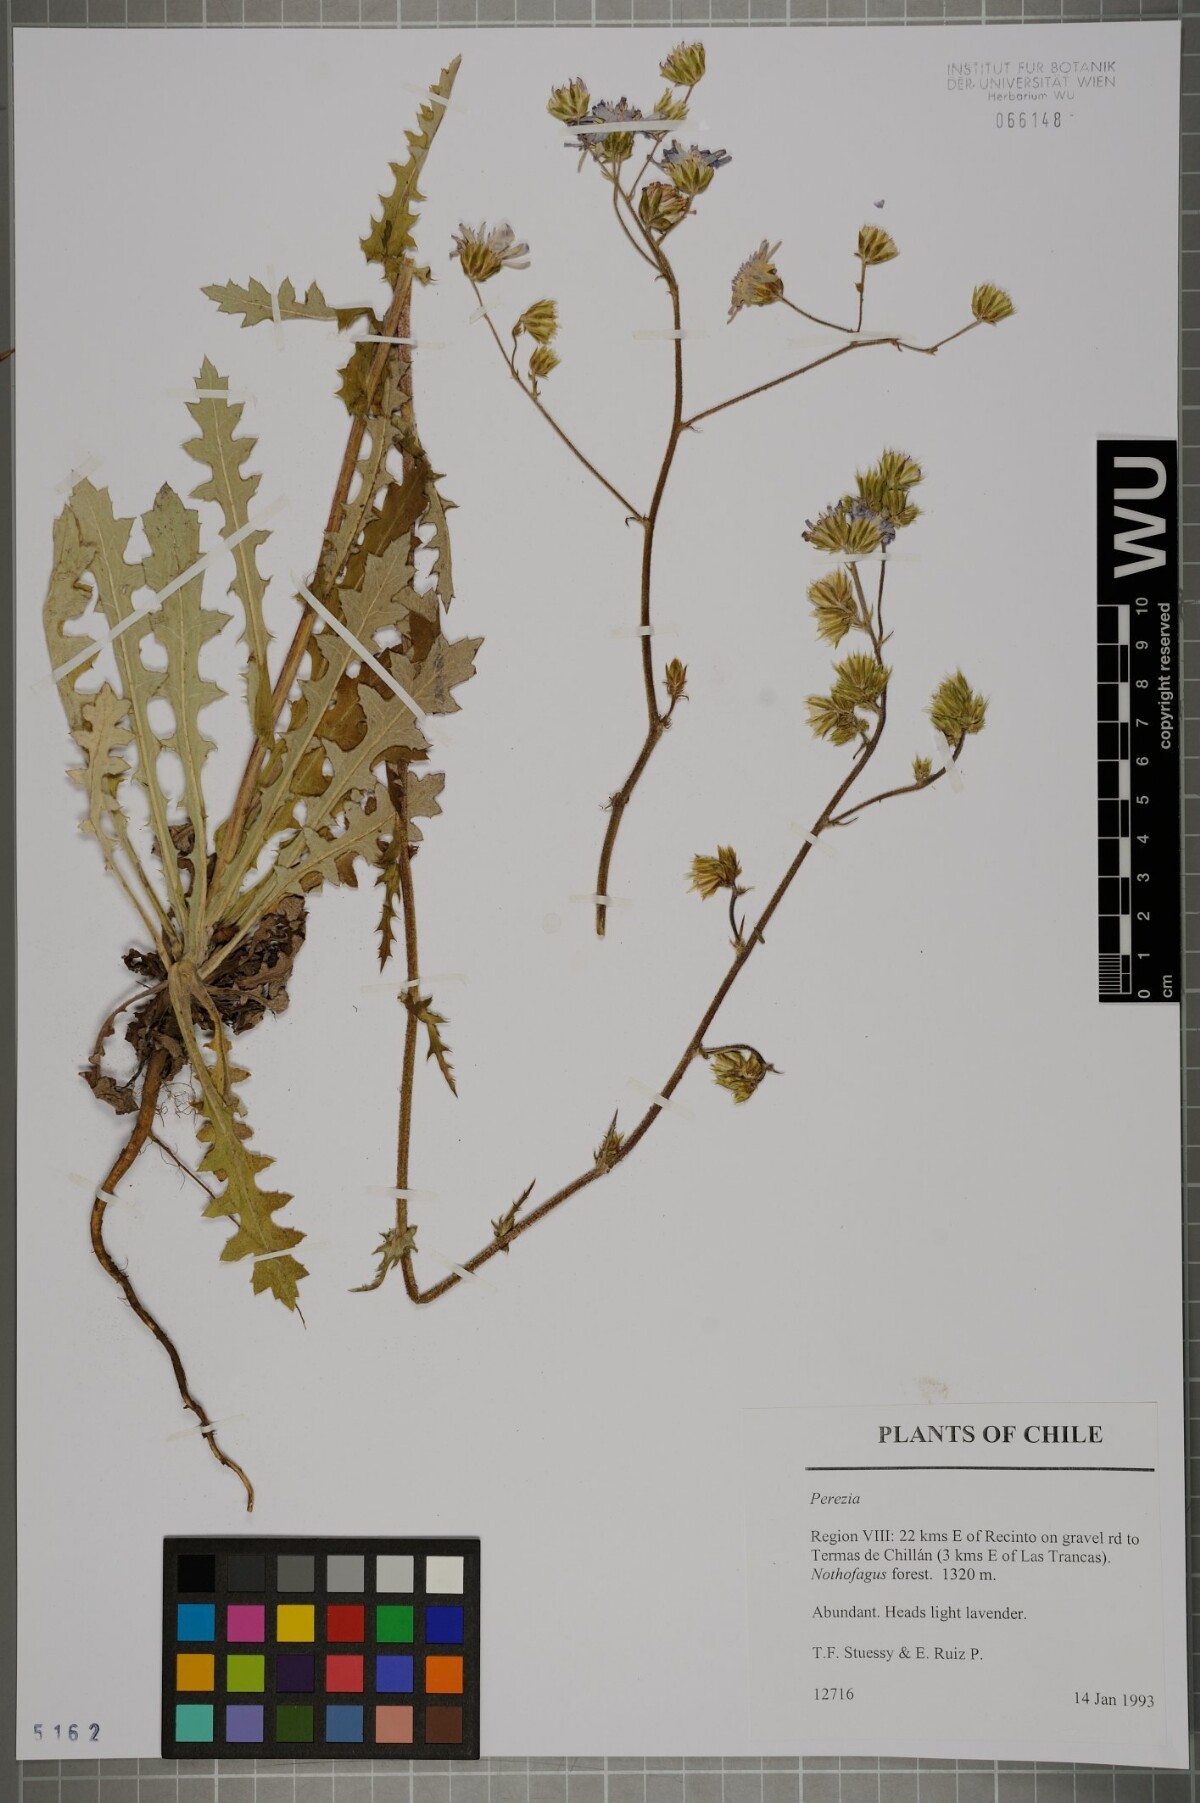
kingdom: Plantae
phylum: Tracheophyta
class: Magnoliopsida
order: Asterales
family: Asteraceae
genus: Plazia
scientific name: Plazia
